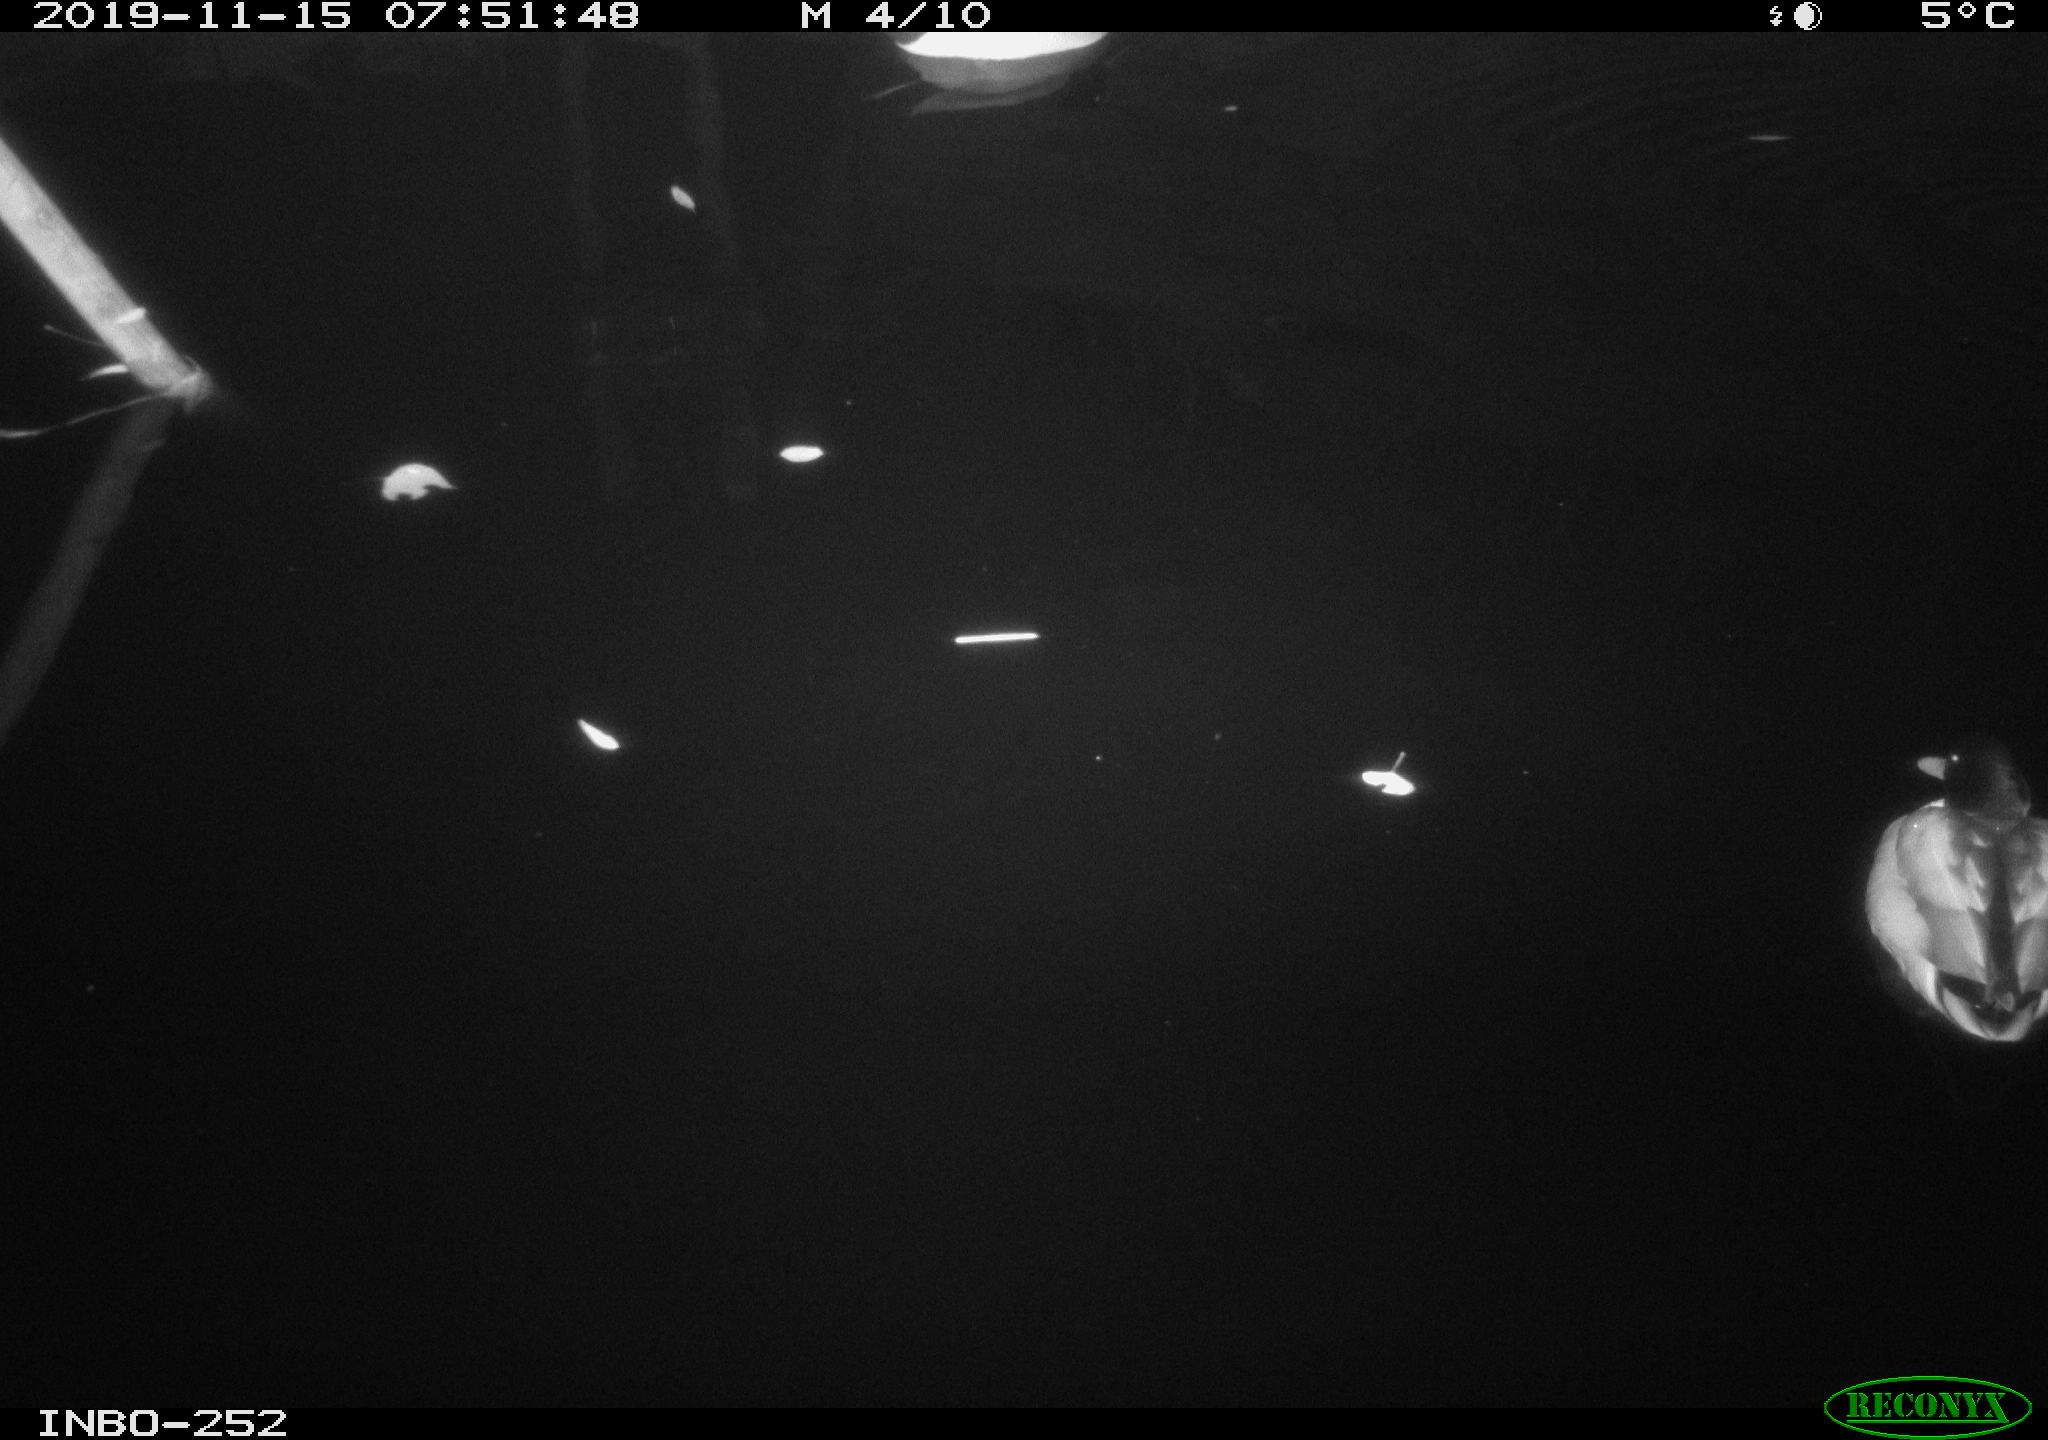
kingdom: Animalia
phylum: Chordata
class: Aves
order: Anseriformes
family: Anatidae
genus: Anas
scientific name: Anas platyrhynchos
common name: Mallard
